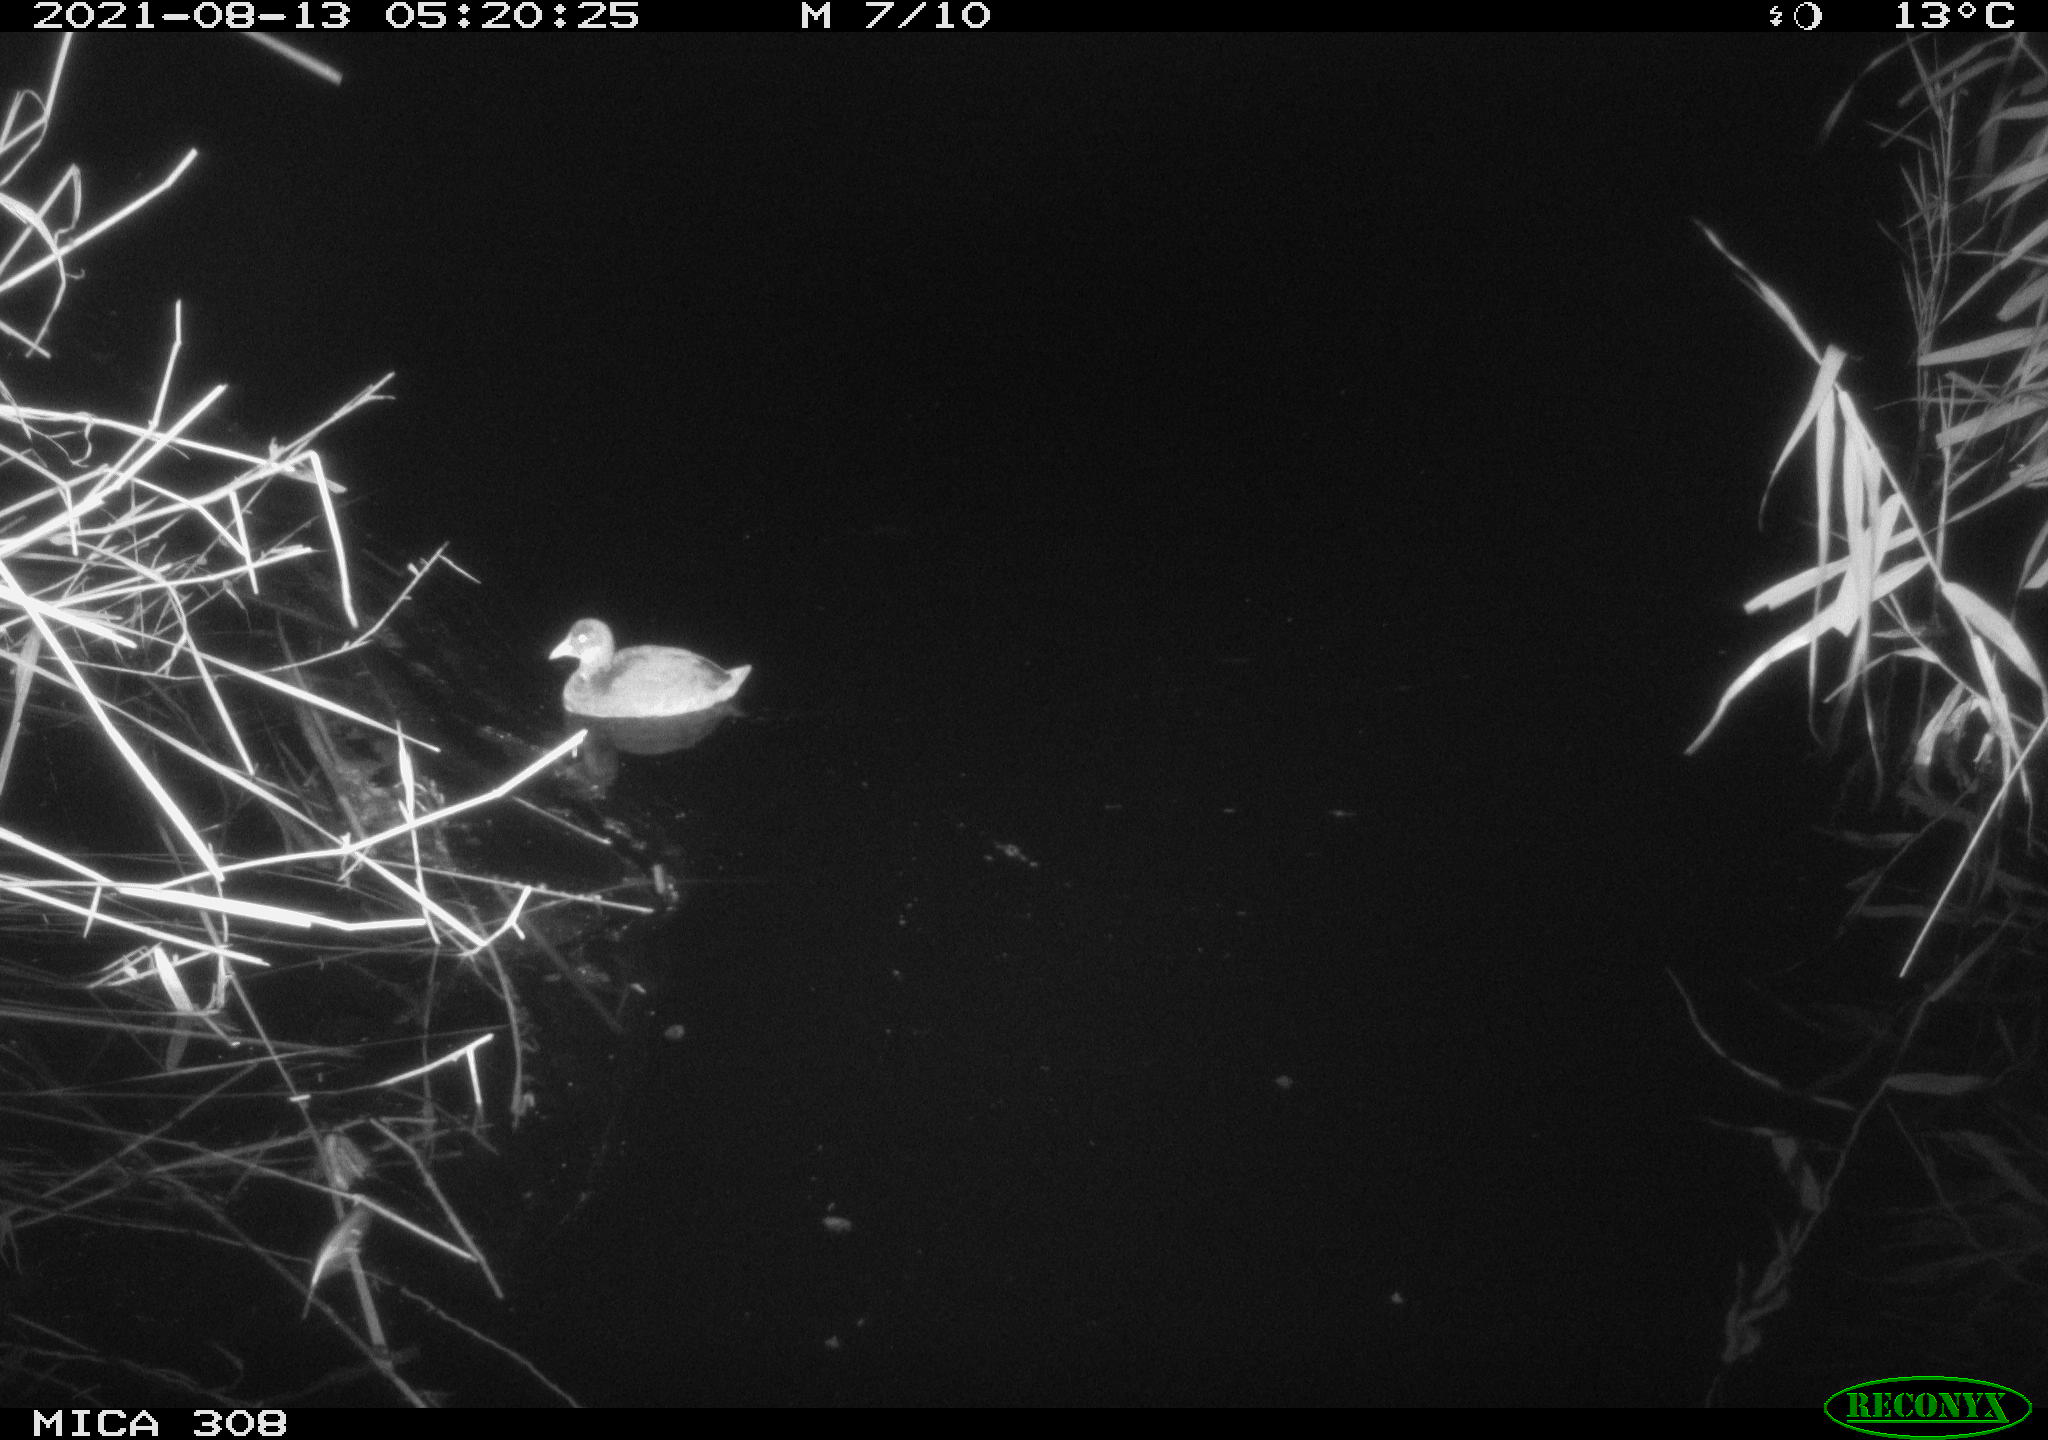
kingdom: Animalia
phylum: Chordata
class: Aves
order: Gruiformes
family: Rallidae
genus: Fulica
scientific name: Fulica atra
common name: Eurasian coot
